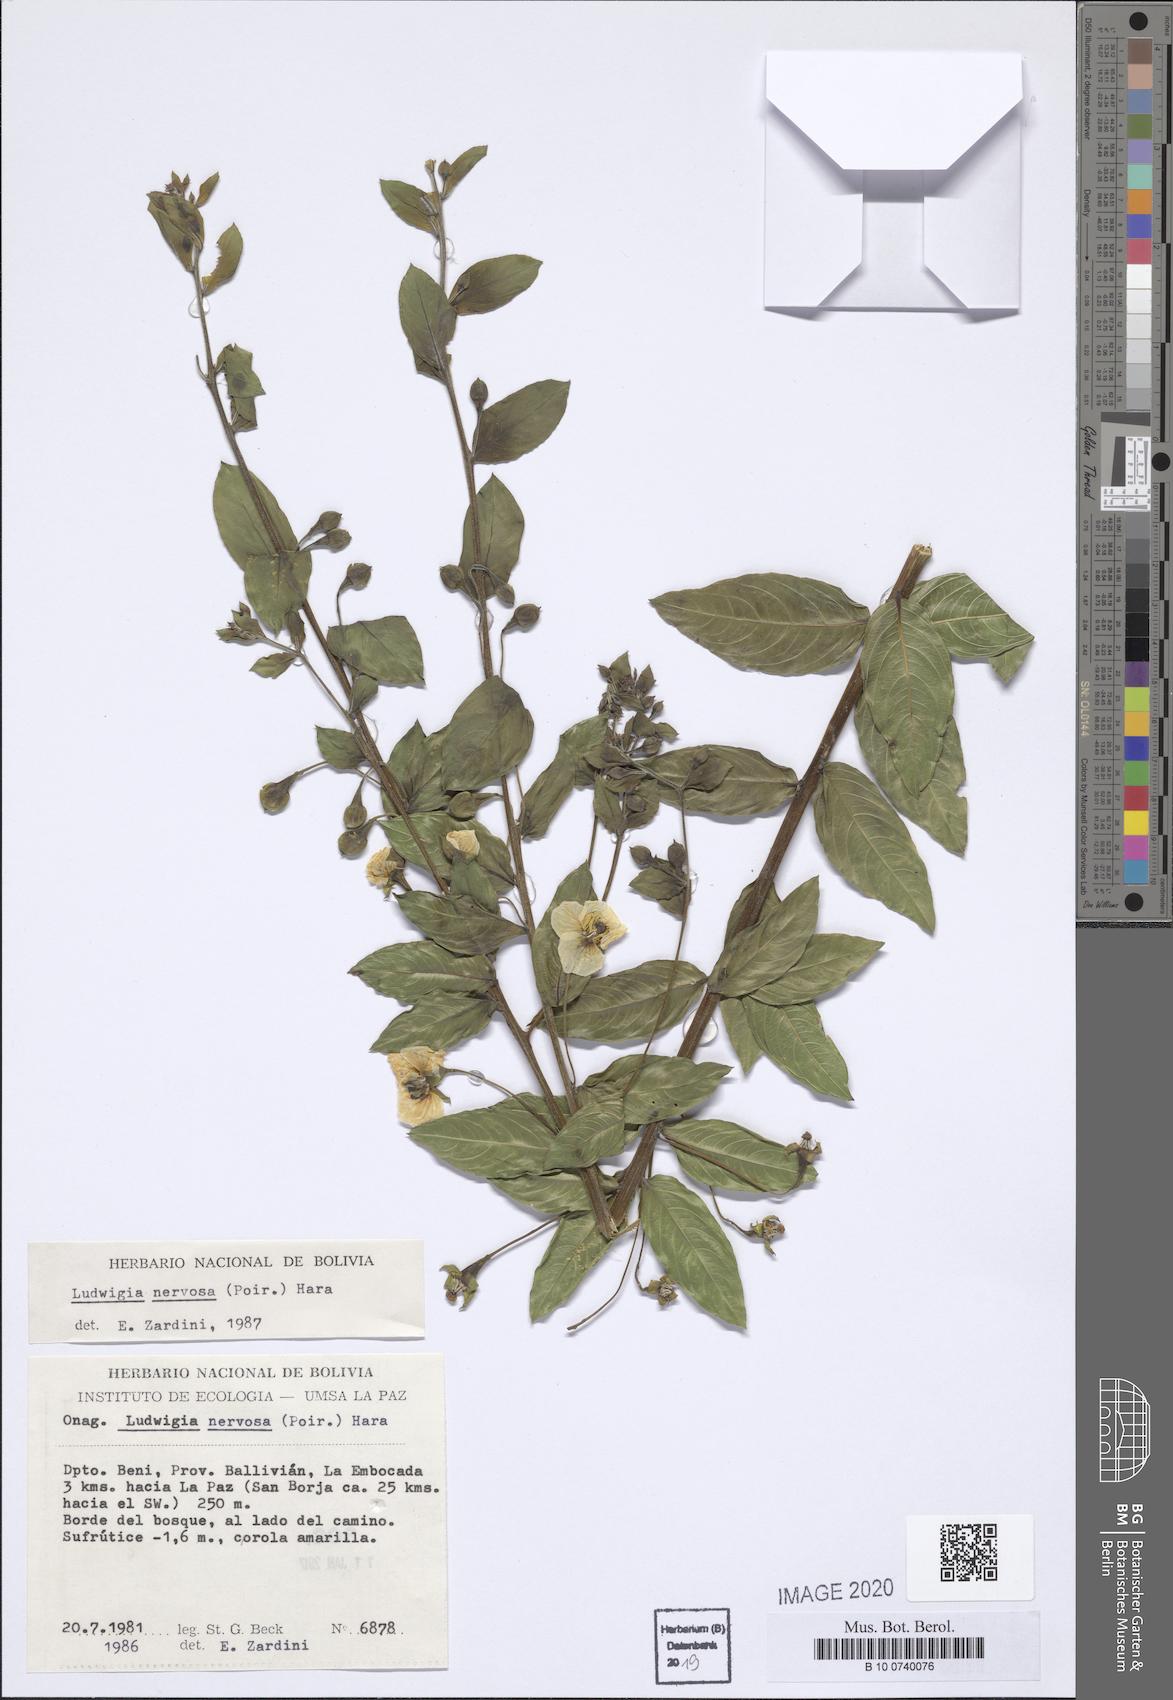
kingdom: Plantae
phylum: Tracheophyta
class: Magnoliopsida
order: Myrtales
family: Onagraceae
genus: Ludwigia
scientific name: Ludwigia nervosa
